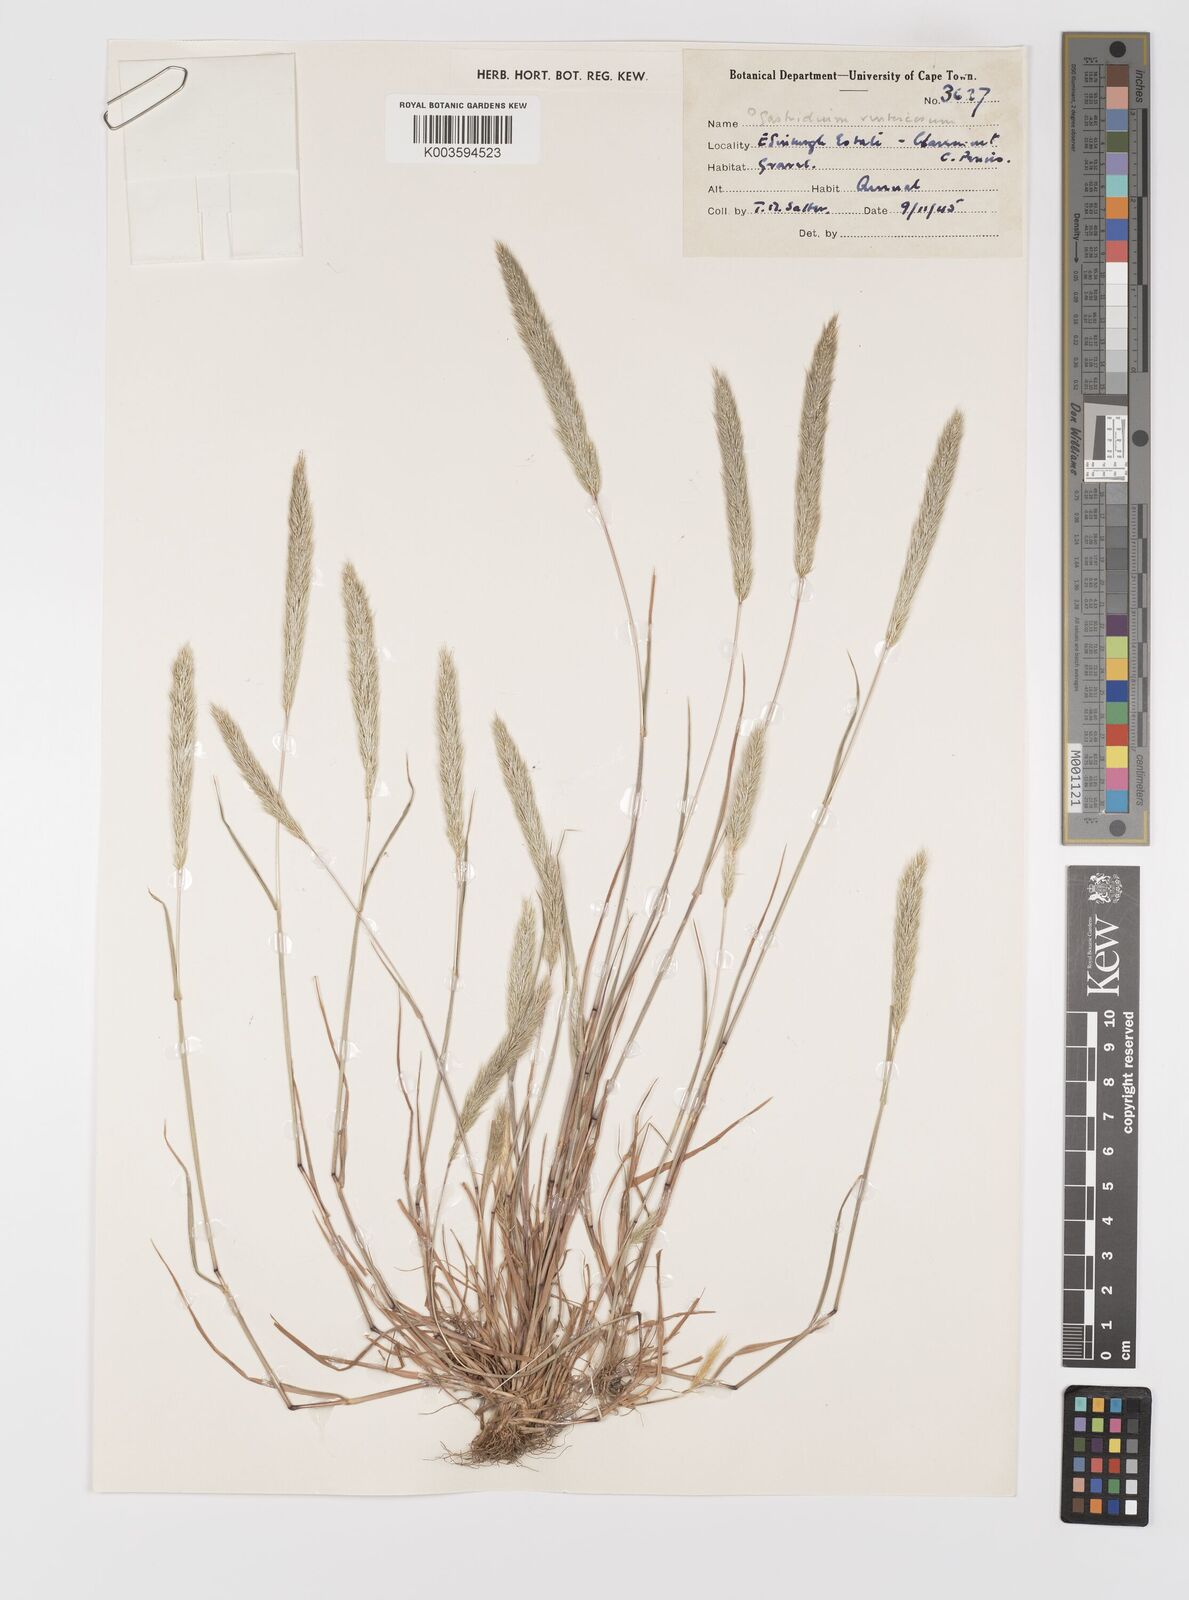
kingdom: Plantae
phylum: Tracheophyta
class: Liliopsida
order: Poales
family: Poaceae
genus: Gastridium
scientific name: Gastridium phleoides
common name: Nit grass
